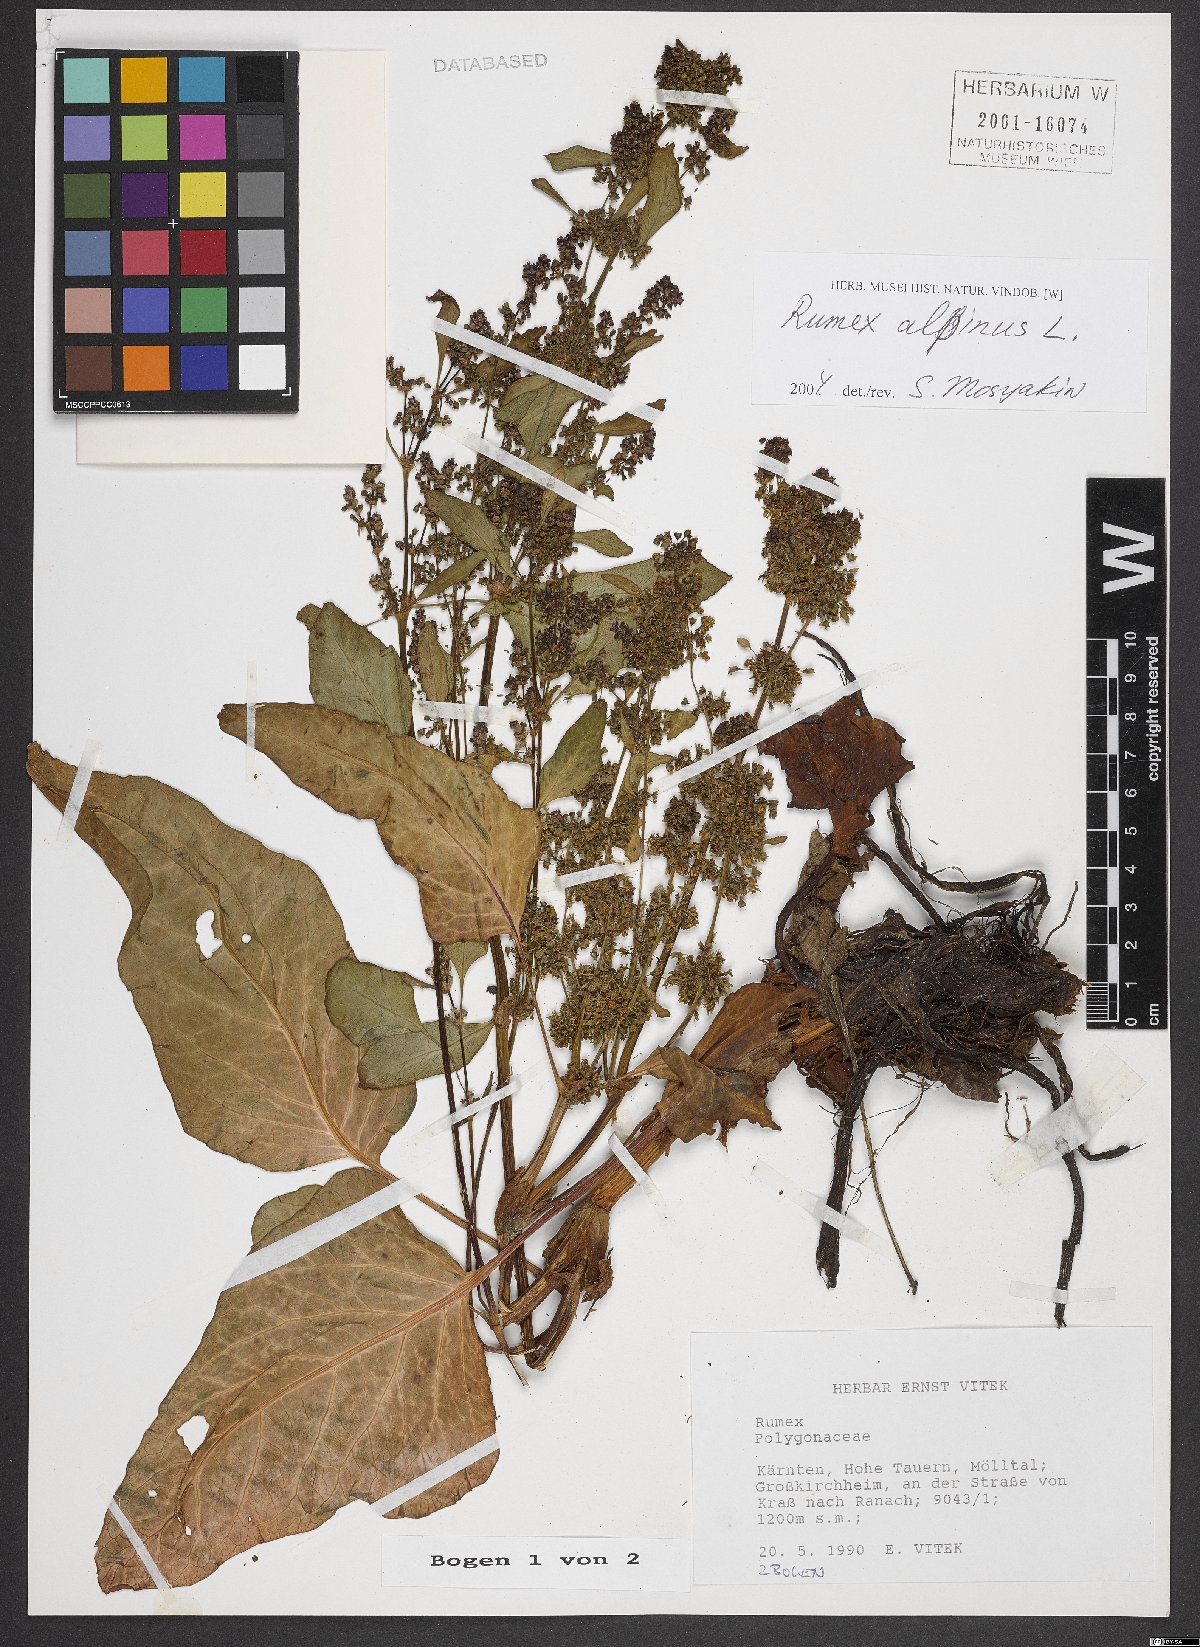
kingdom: Plantae
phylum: Tracheophyta
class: Magnoliopsida
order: Caryophyllales
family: Polygonaceae
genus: Rumex
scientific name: Rumex alpinus
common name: Alpine dock
